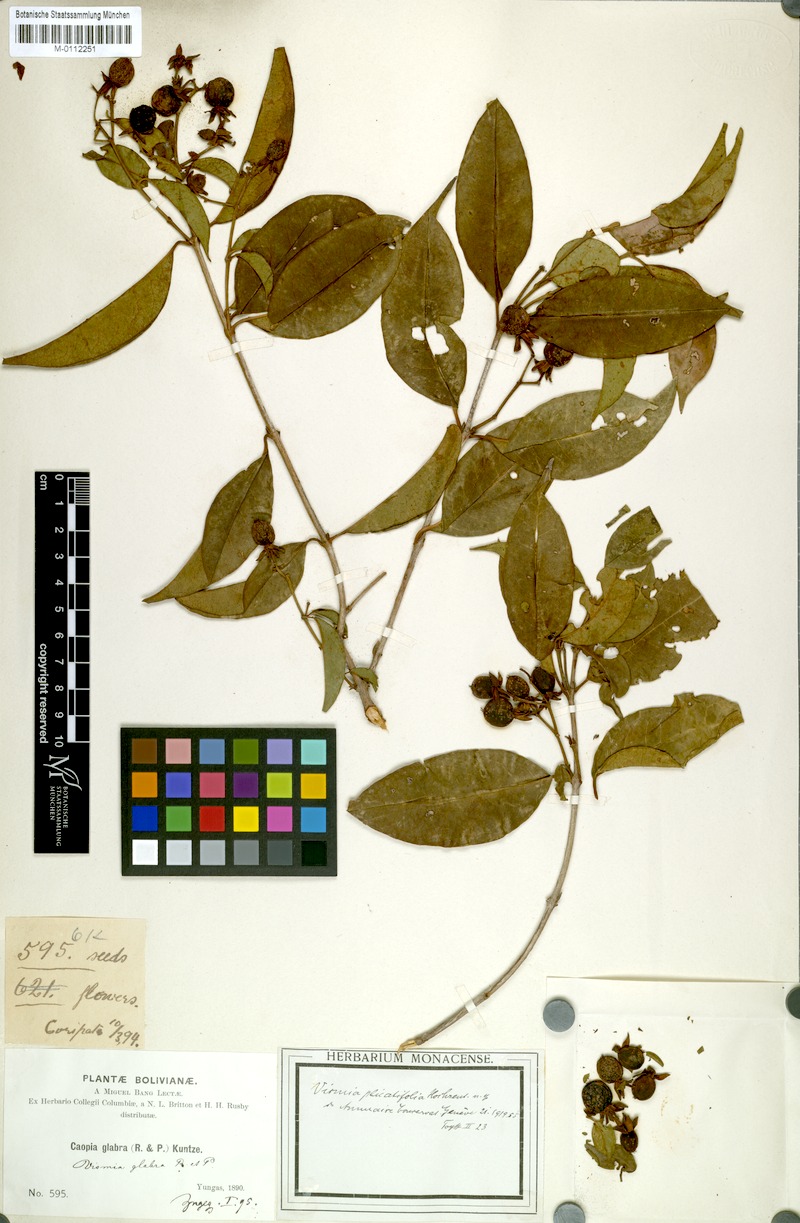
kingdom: Plantae
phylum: Tracheophyta
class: Magnoliopsida
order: Malpighiales
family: Hypericaceae
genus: Vismia
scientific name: Vismia glabra
